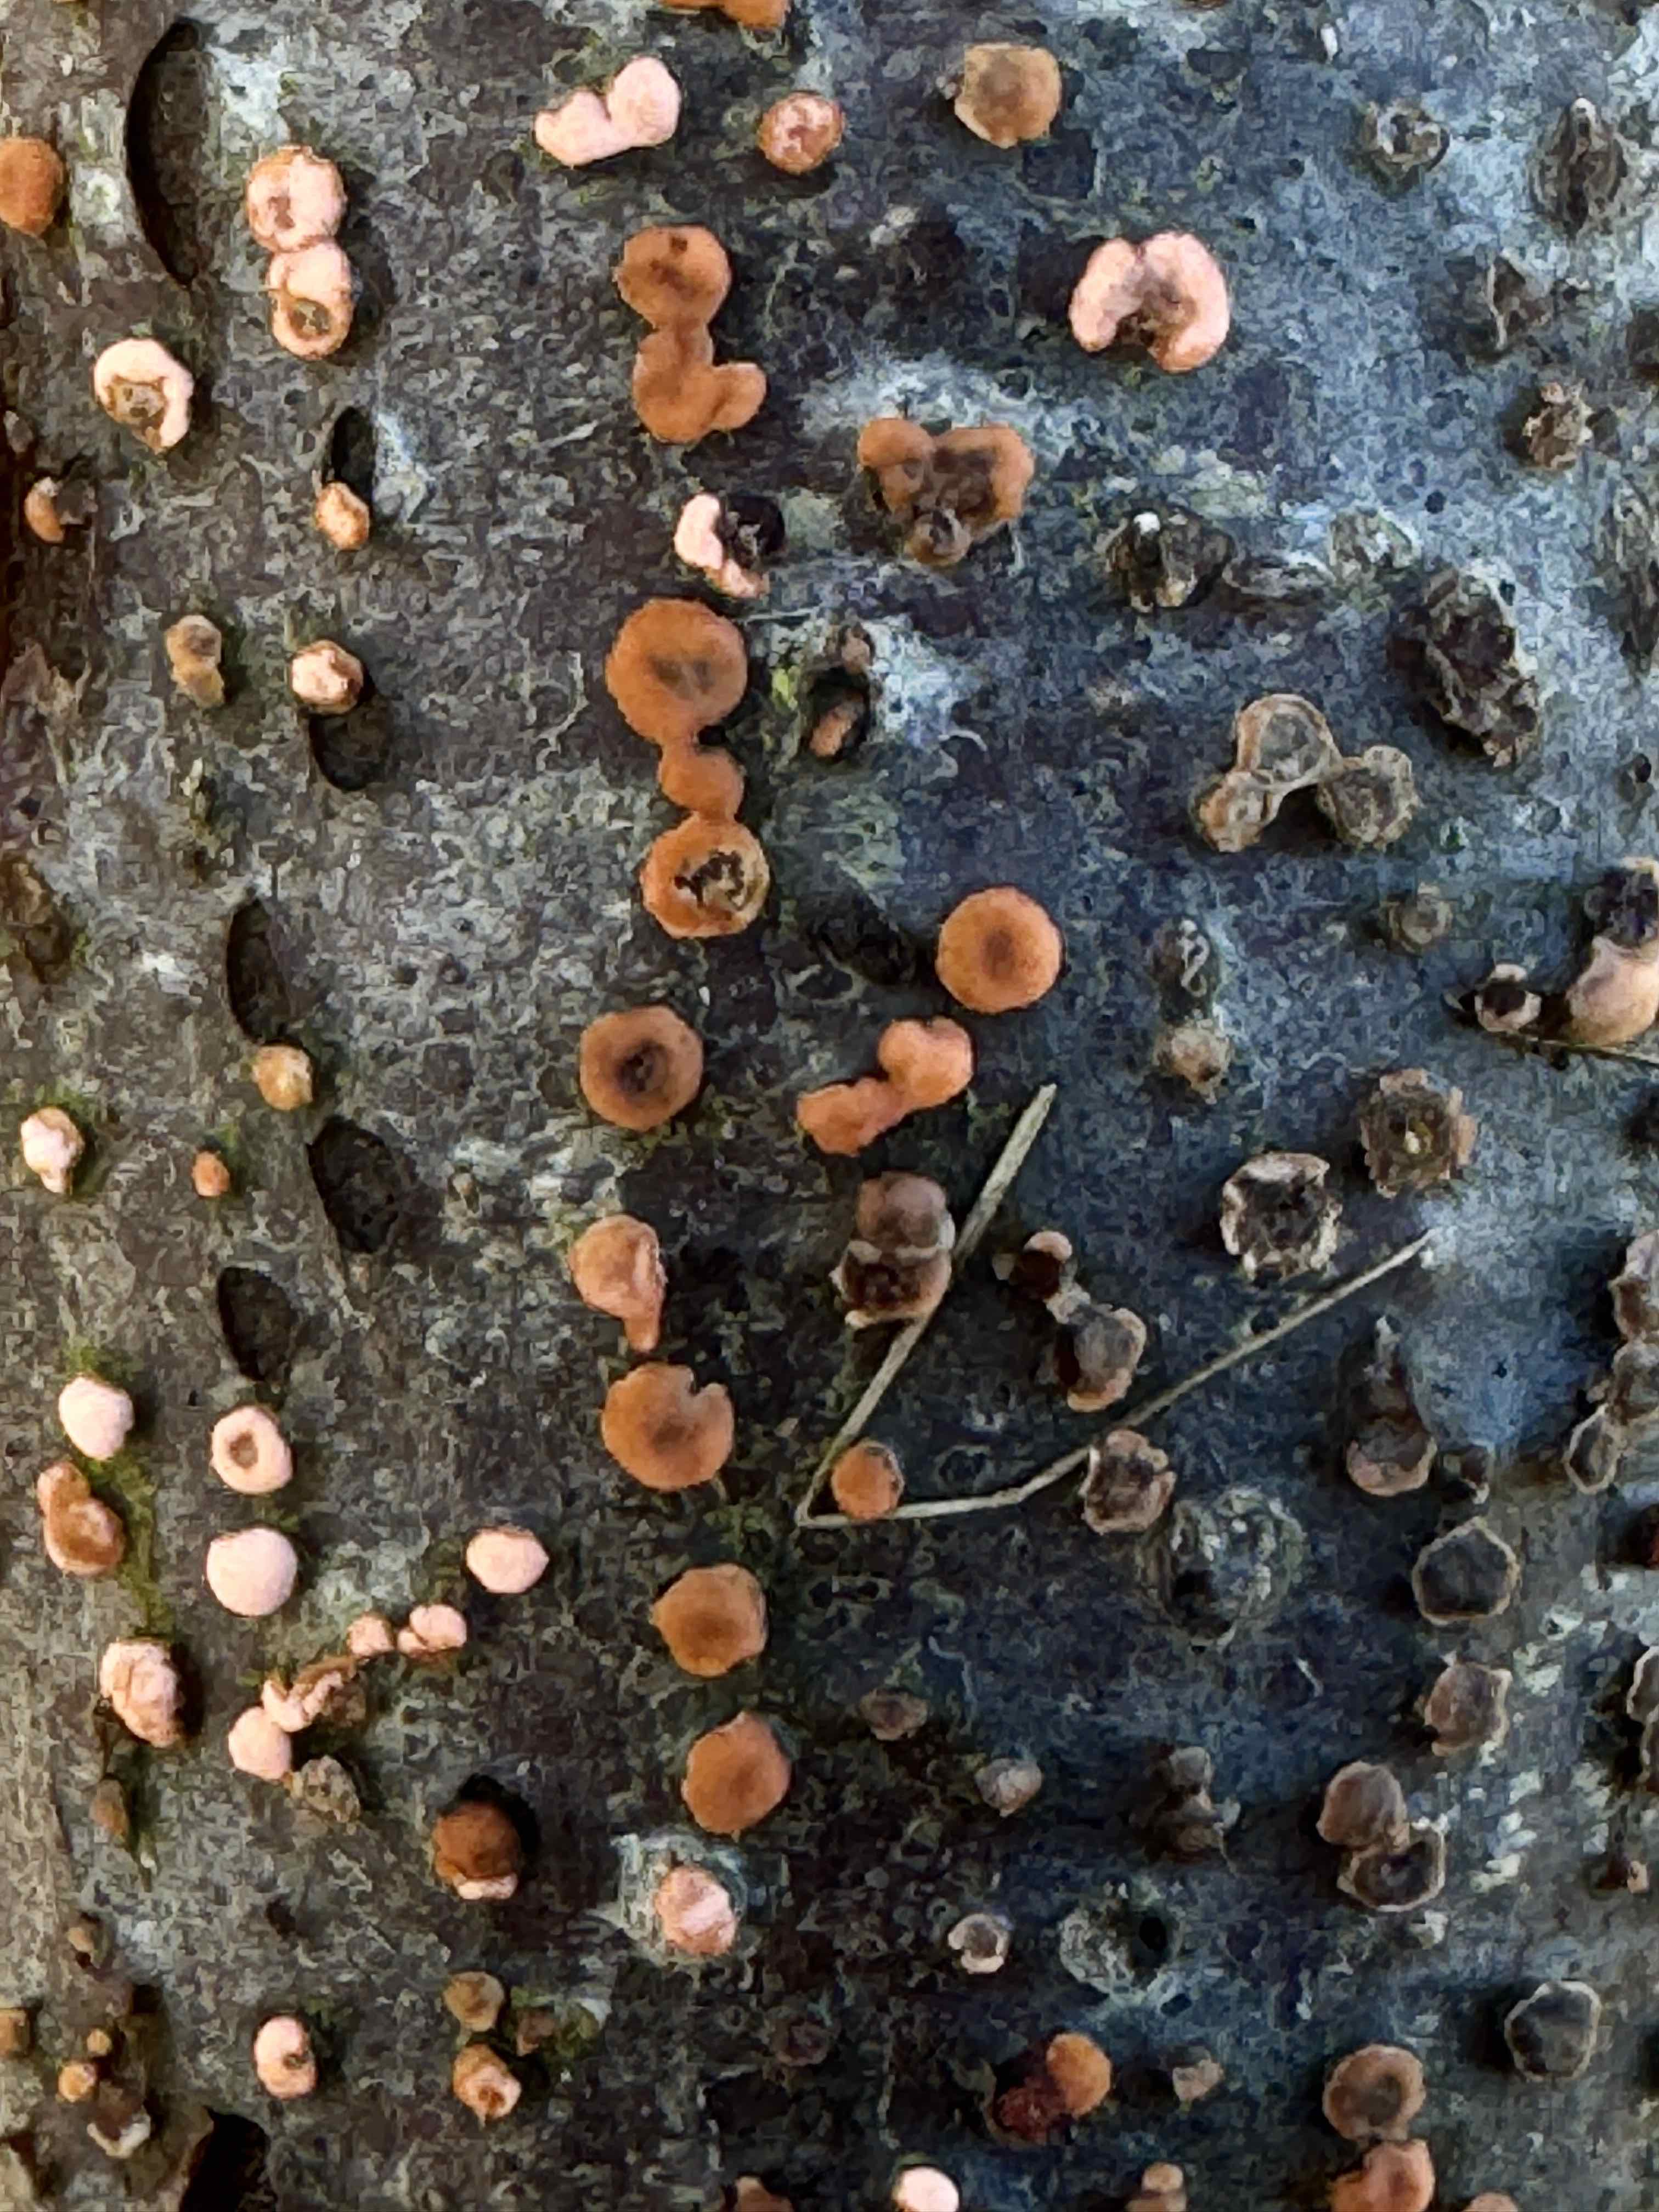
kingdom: Fungi
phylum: Ascomycota
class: Sordariomycetes
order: Hypocreales
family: Nectriaceae
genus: Nectria
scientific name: Nectria cinnabarina
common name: almindelig cinnobersvamp
